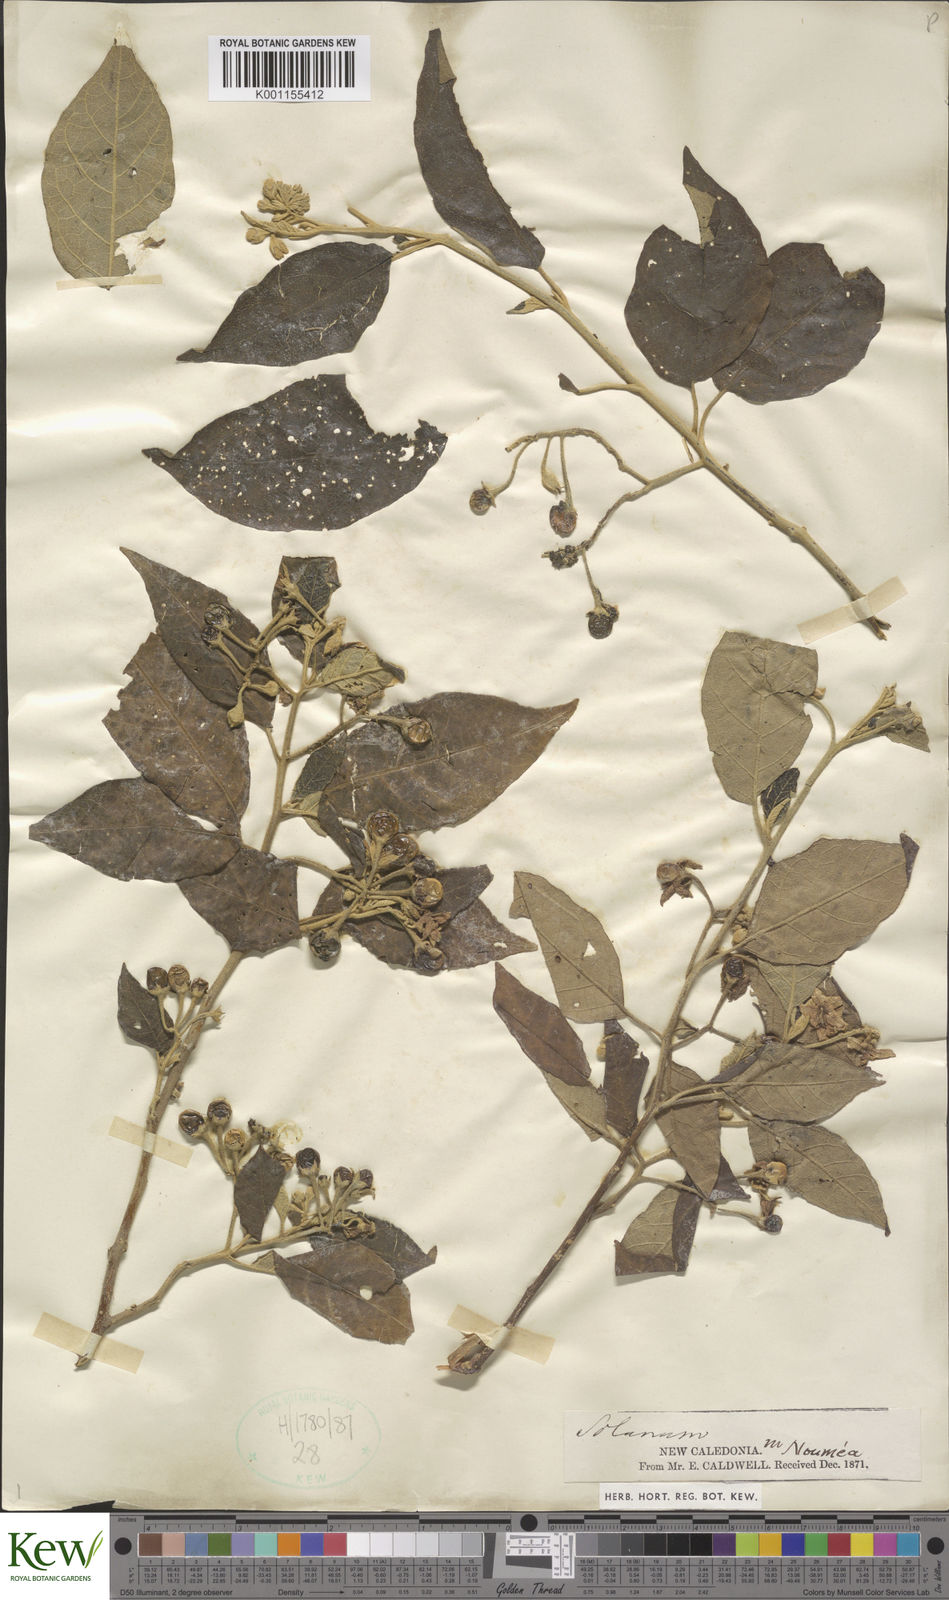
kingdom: Plantae
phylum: Tracheophyta
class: Magnoliopsida
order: Solanales
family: Solanaceae
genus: Solanum
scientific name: Solanum tetrandrum
